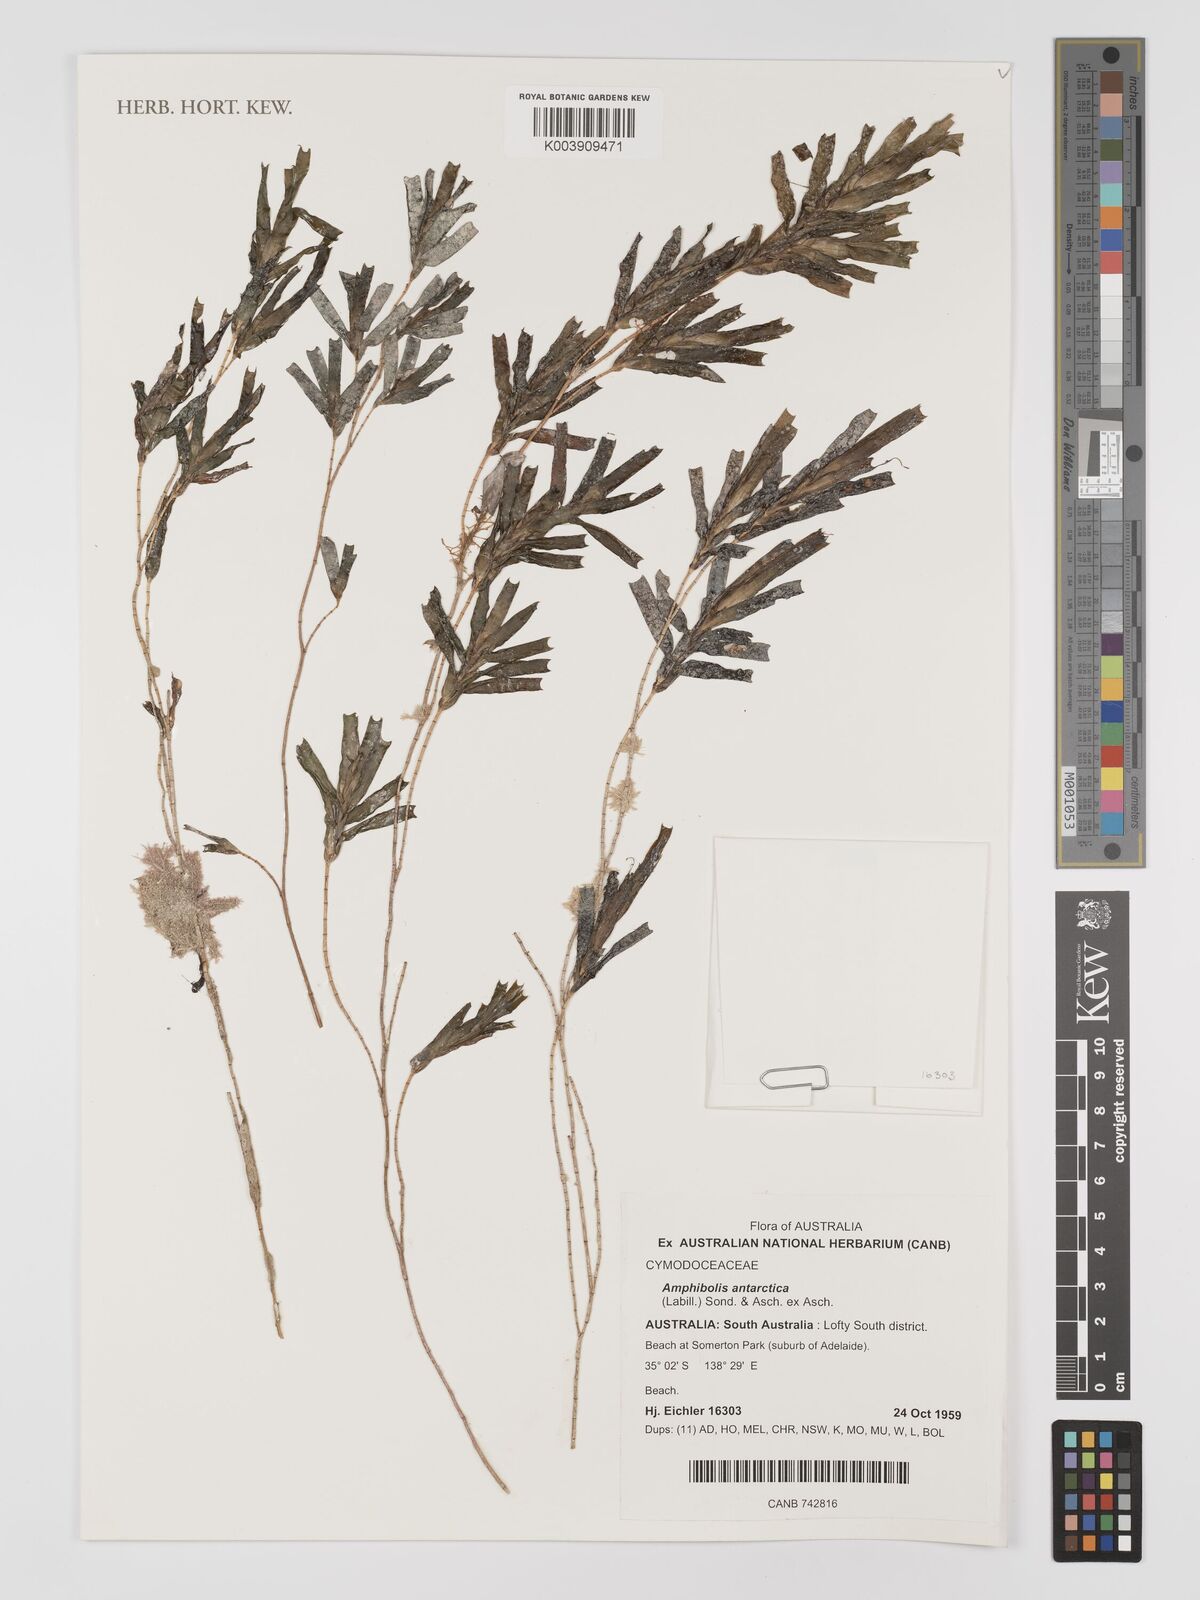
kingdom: Plantae
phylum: Tracheophyta
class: Liliopsida
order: Alismatales
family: Cymodoceaceae
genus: Amphibolis
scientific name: Amphibolis antarctica
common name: Species code: aa
